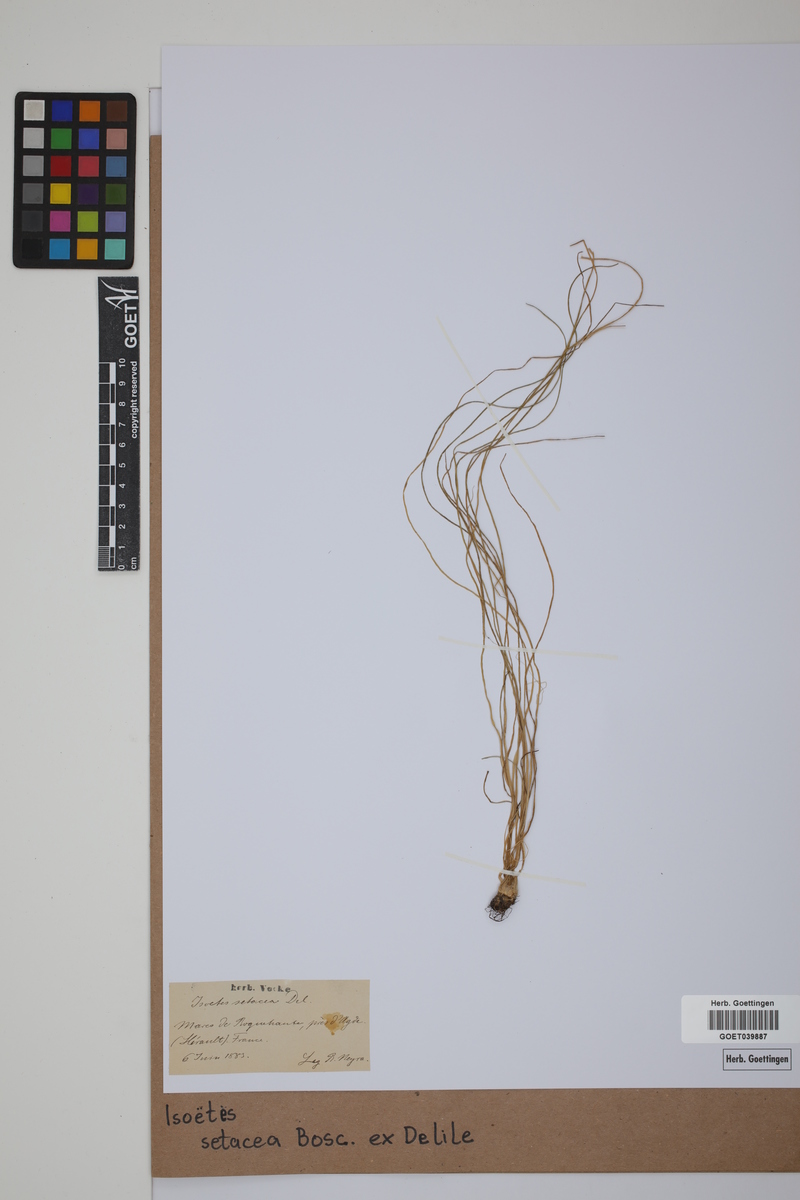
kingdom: Plantae
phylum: Tracheophyta
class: Lycopodiopsida
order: Isoetales
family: Isoetaceae
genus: Isoetes
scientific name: Isoetes longissima
